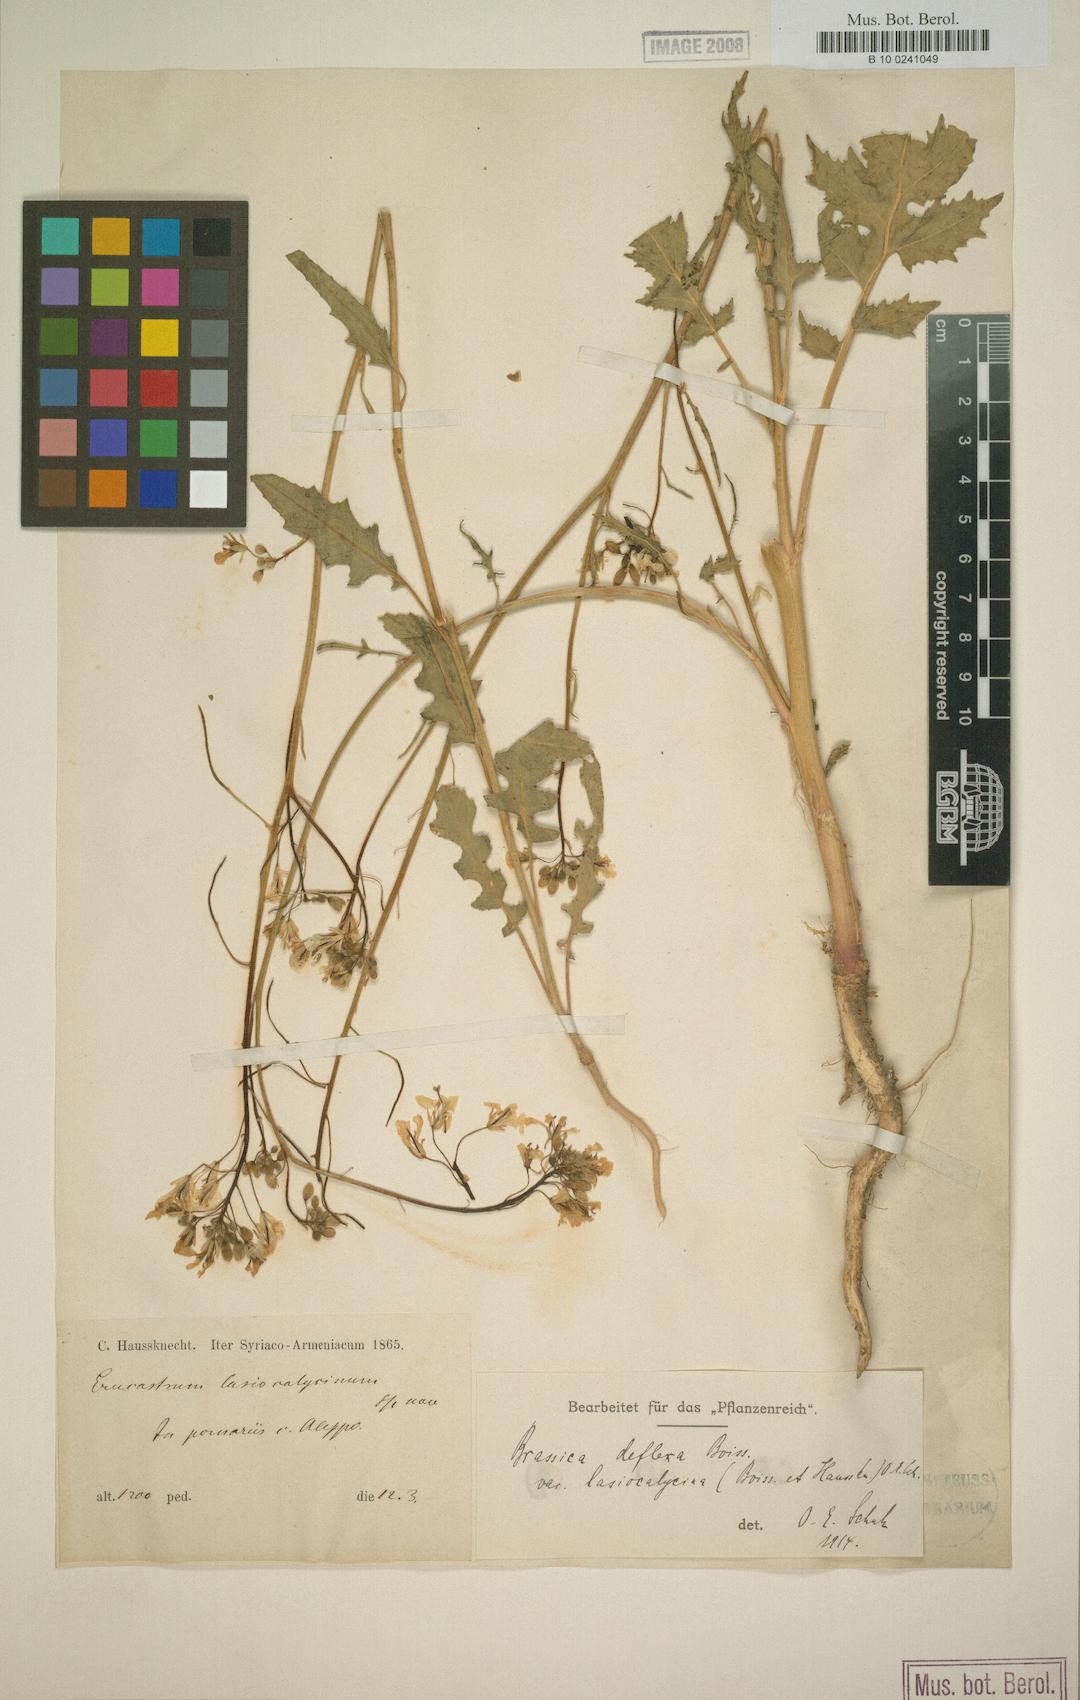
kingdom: Plantae
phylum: Tracheophyta
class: Magnoliopsida
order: Brassicales
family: Brassicaceae
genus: Brassica
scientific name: Brassica deflexa
